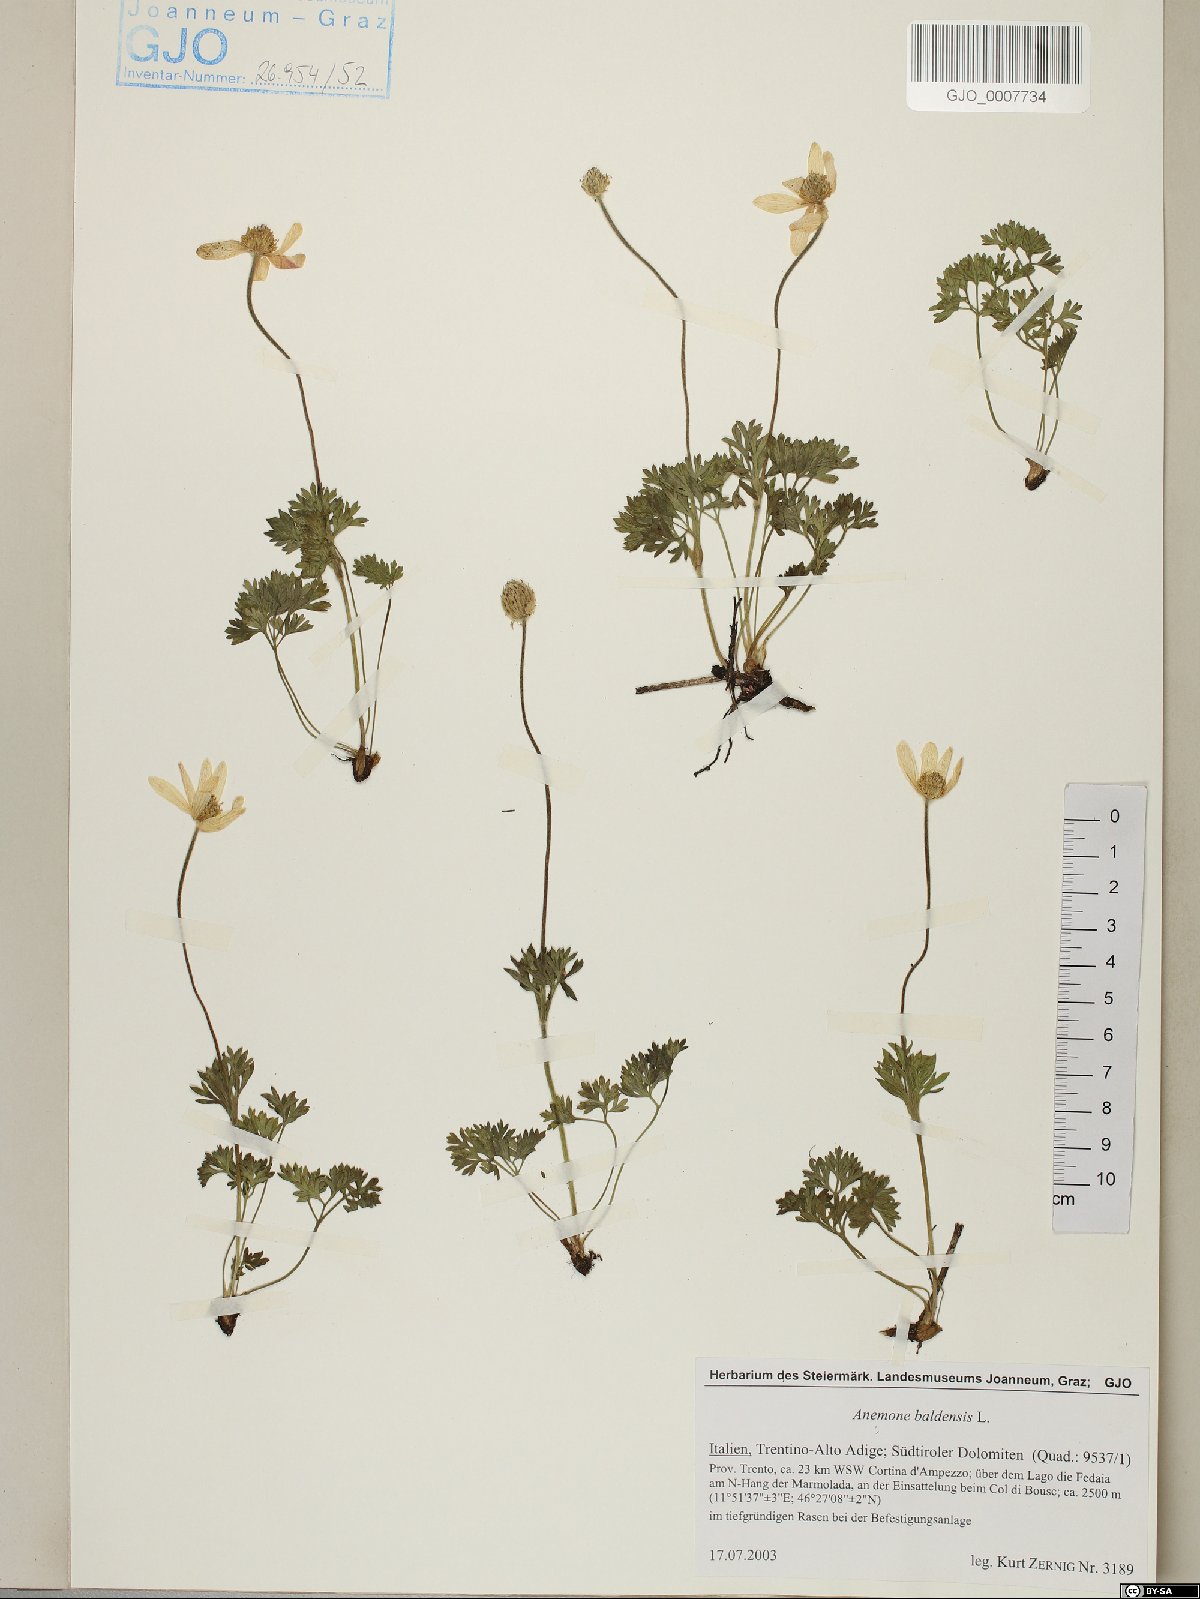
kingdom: Plantae
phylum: Tracheophyta
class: Magnoliopsida
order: Ranunculales
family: Ranunculaceae
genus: Anemone
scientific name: Anemone baldensis
